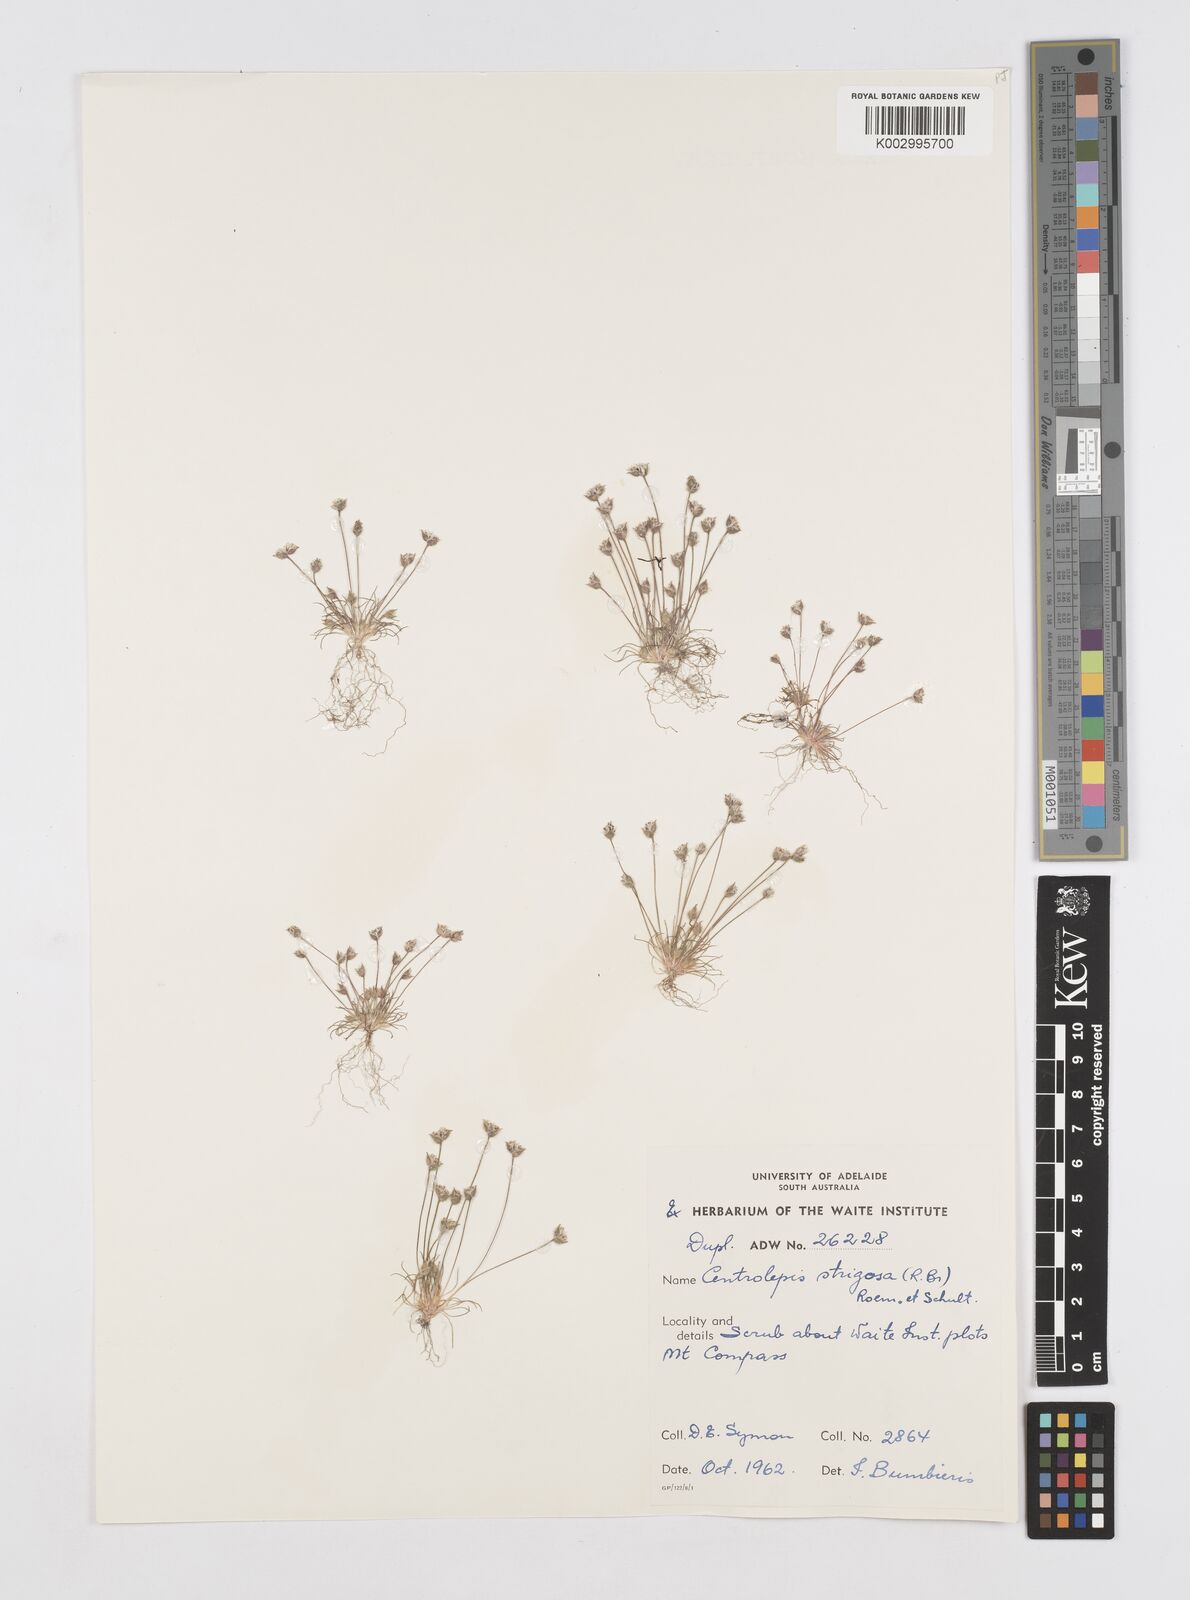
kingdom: Plantae
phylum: Tracheophyta
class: Liliopsida
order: Poales
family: Restionaceae
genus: Centrolepis
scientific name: Centrolepis strigosa
